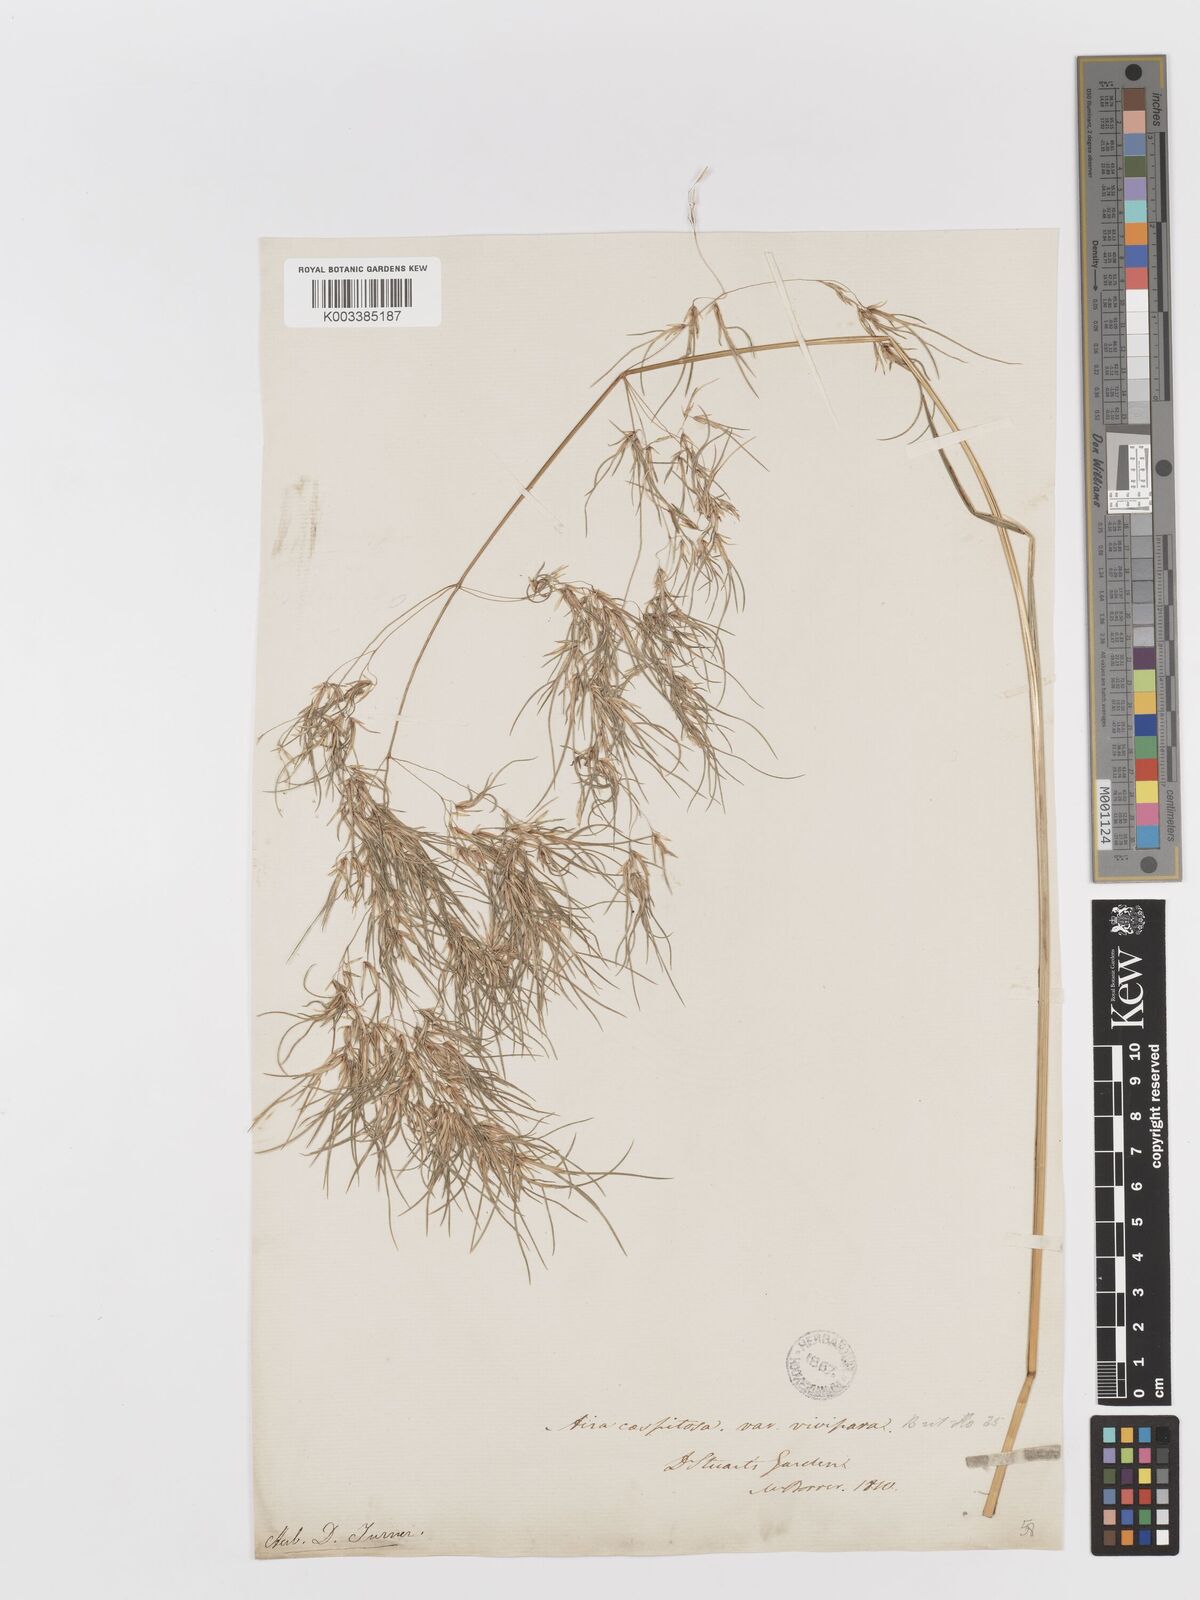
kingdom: Plantae
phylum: Tracheophyta
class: Liliopsida
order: Poales
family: Poaceae
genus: Deschampsia
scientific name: Deschampsia cespitosa
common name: Tufted hair-grass
